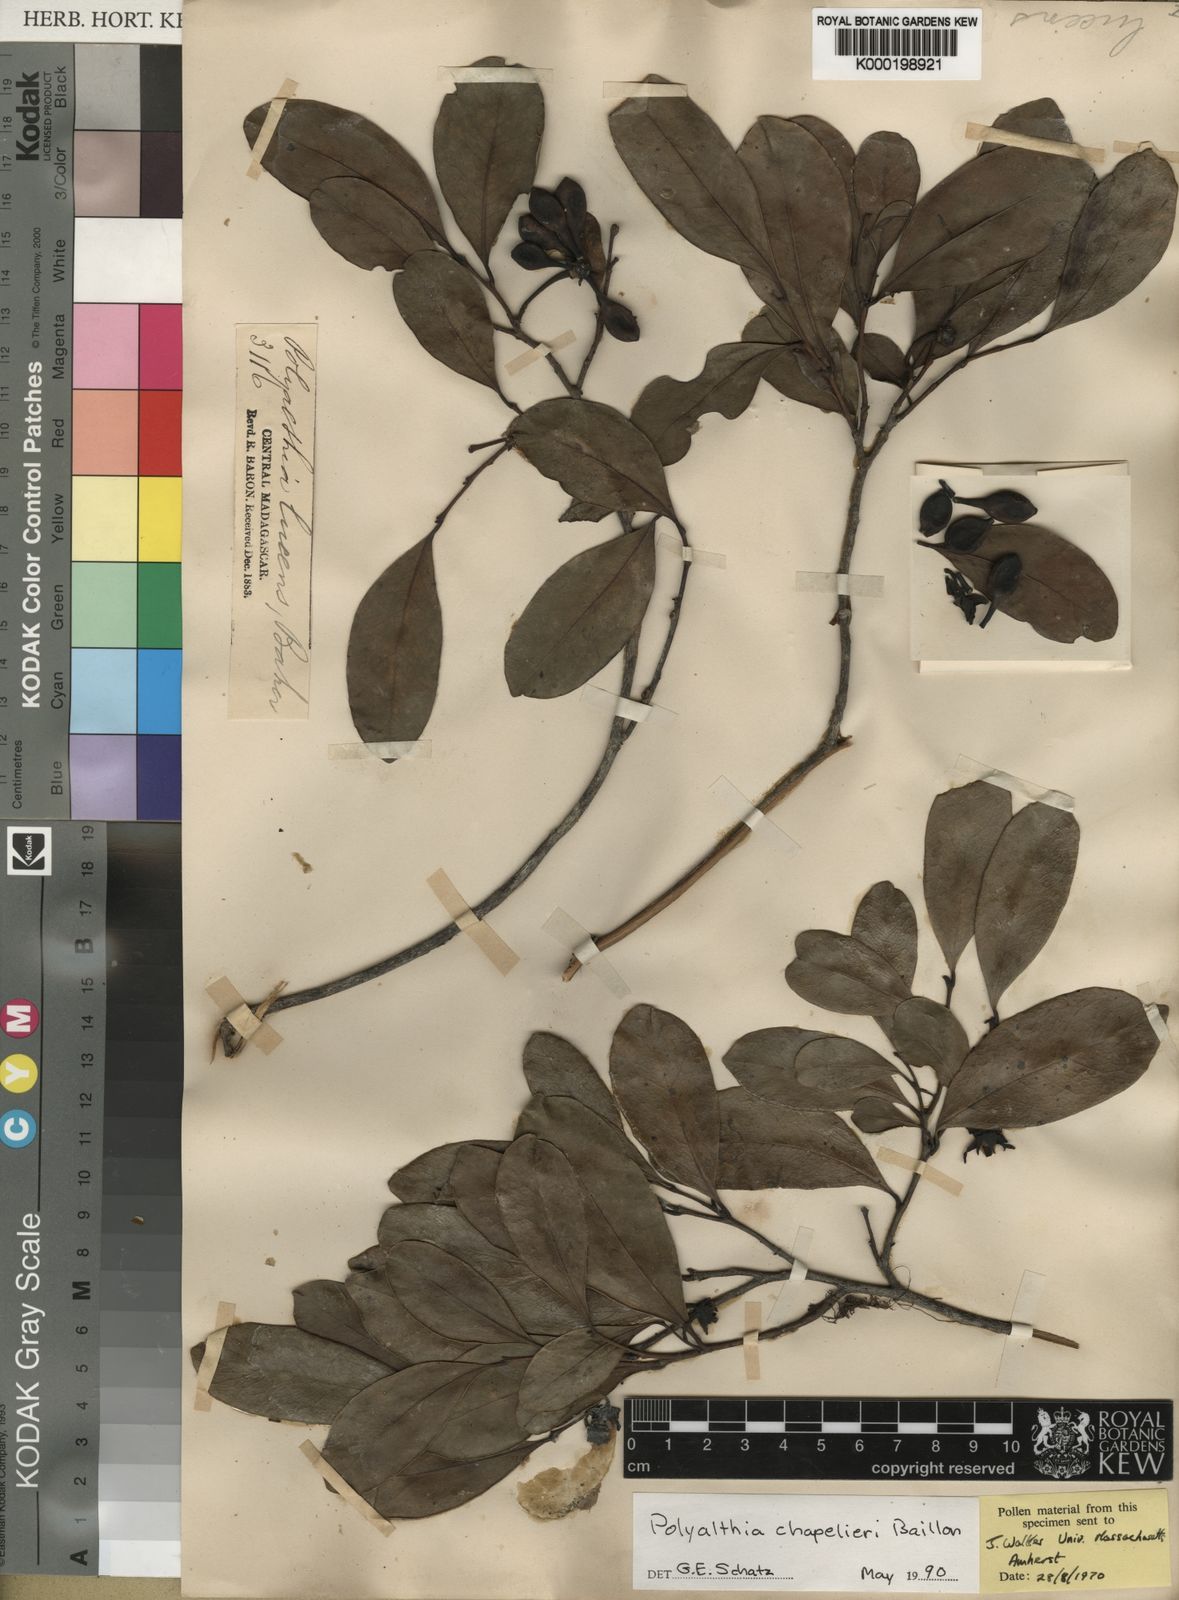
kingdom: Plantae
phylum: Tracheophyta
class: Magnoliopsida
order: Magnoliales
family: Annonaceae
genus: Fenerivia
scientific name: Fenerivia chapelieri
